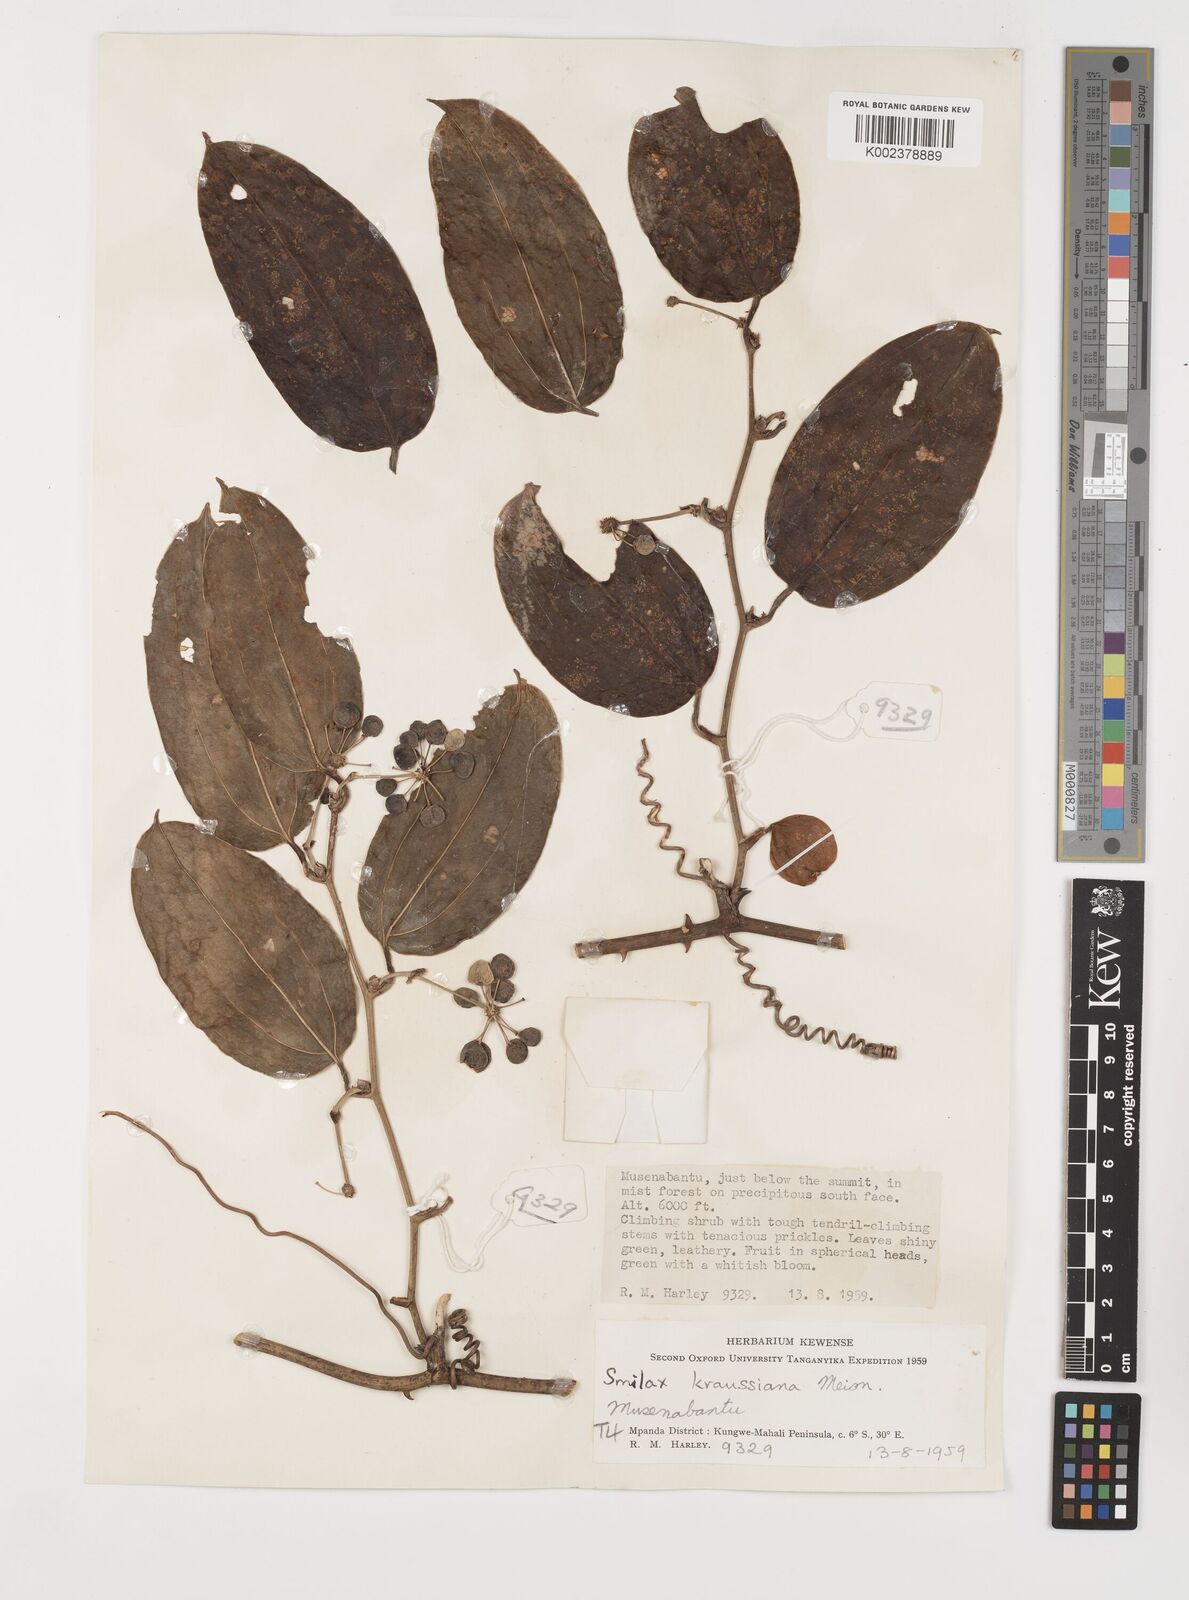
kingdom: Plantae
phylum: Tracheophyta
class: Liliopsida
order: Liliales
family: Smilacaceae
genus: Smilax
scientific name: Smilax anceps
